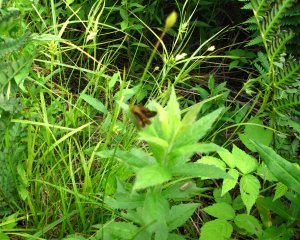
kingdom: Animalia
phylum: Arthropoda
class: Insecta
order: Lepidoptera
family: Hesperiidae
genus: Polites
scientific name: Polites
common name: Long Dash Skipper
